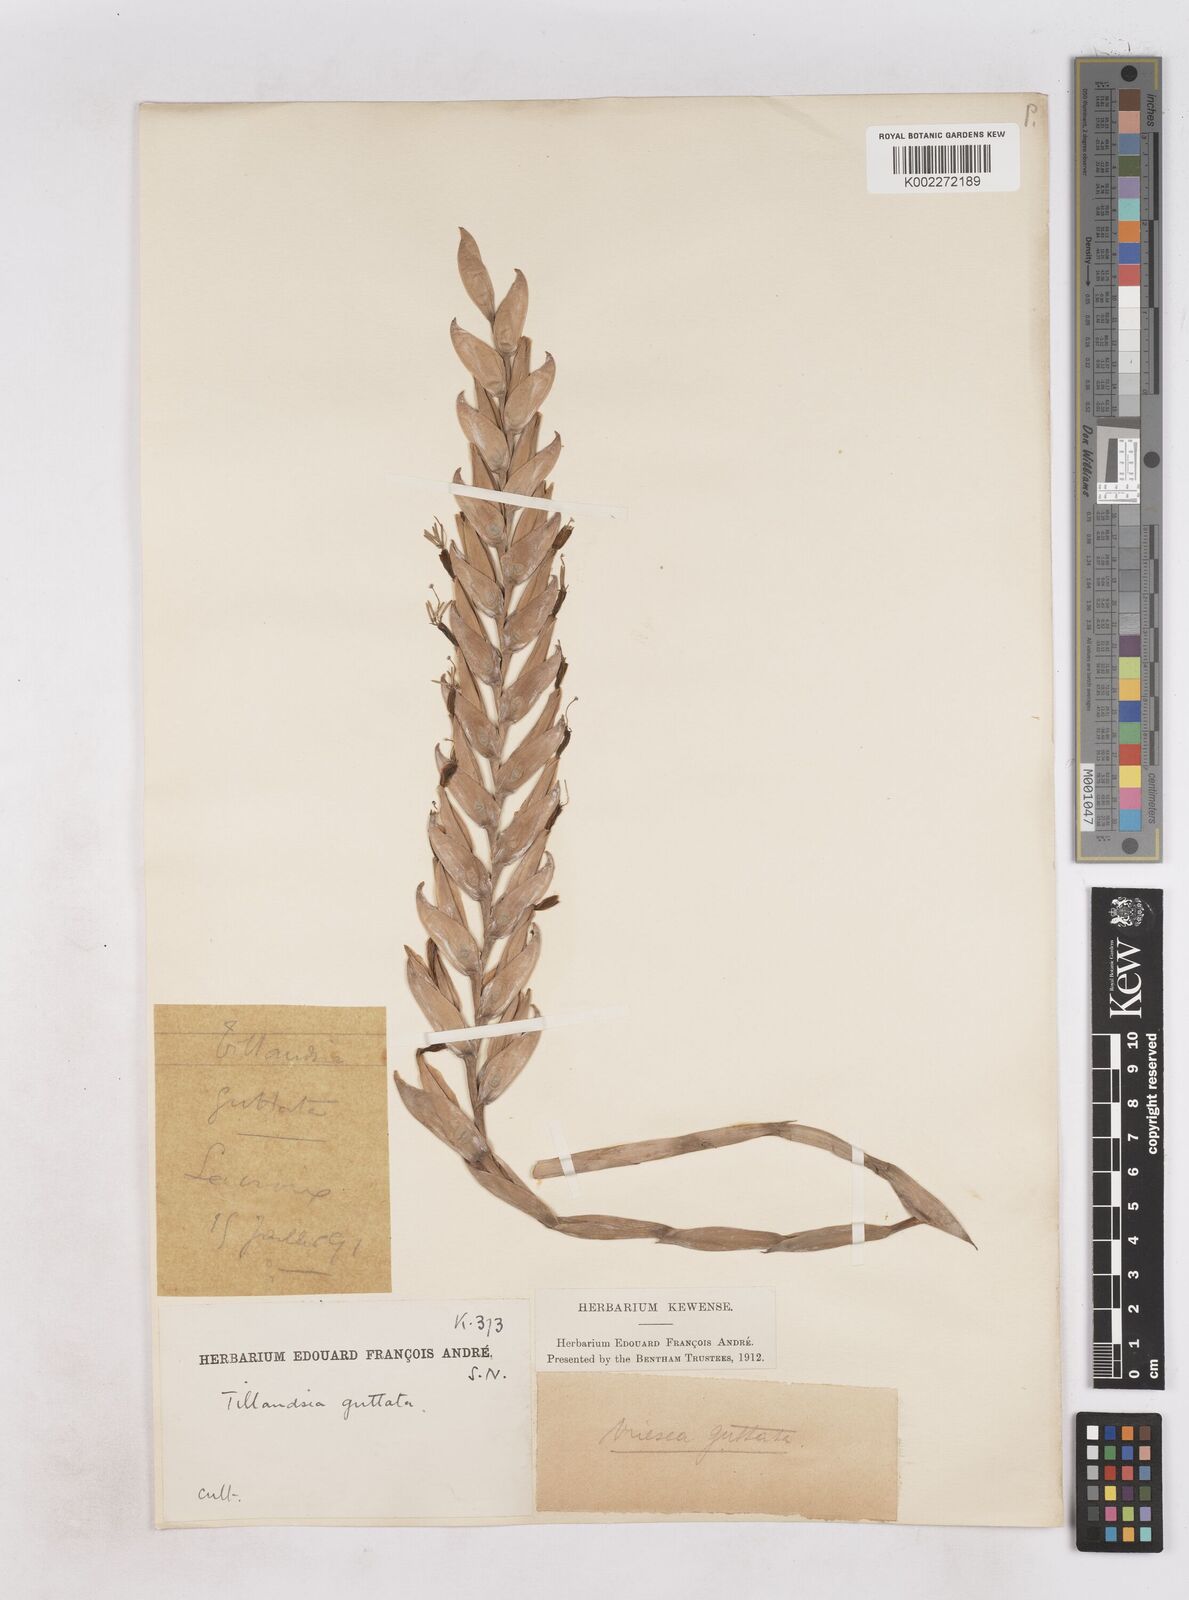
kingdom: Plantae
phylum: Tracheophyta
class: Liliopsida
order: Poales
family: Bromeliaceae
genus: Vriesea
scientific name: Vriesea guttata
